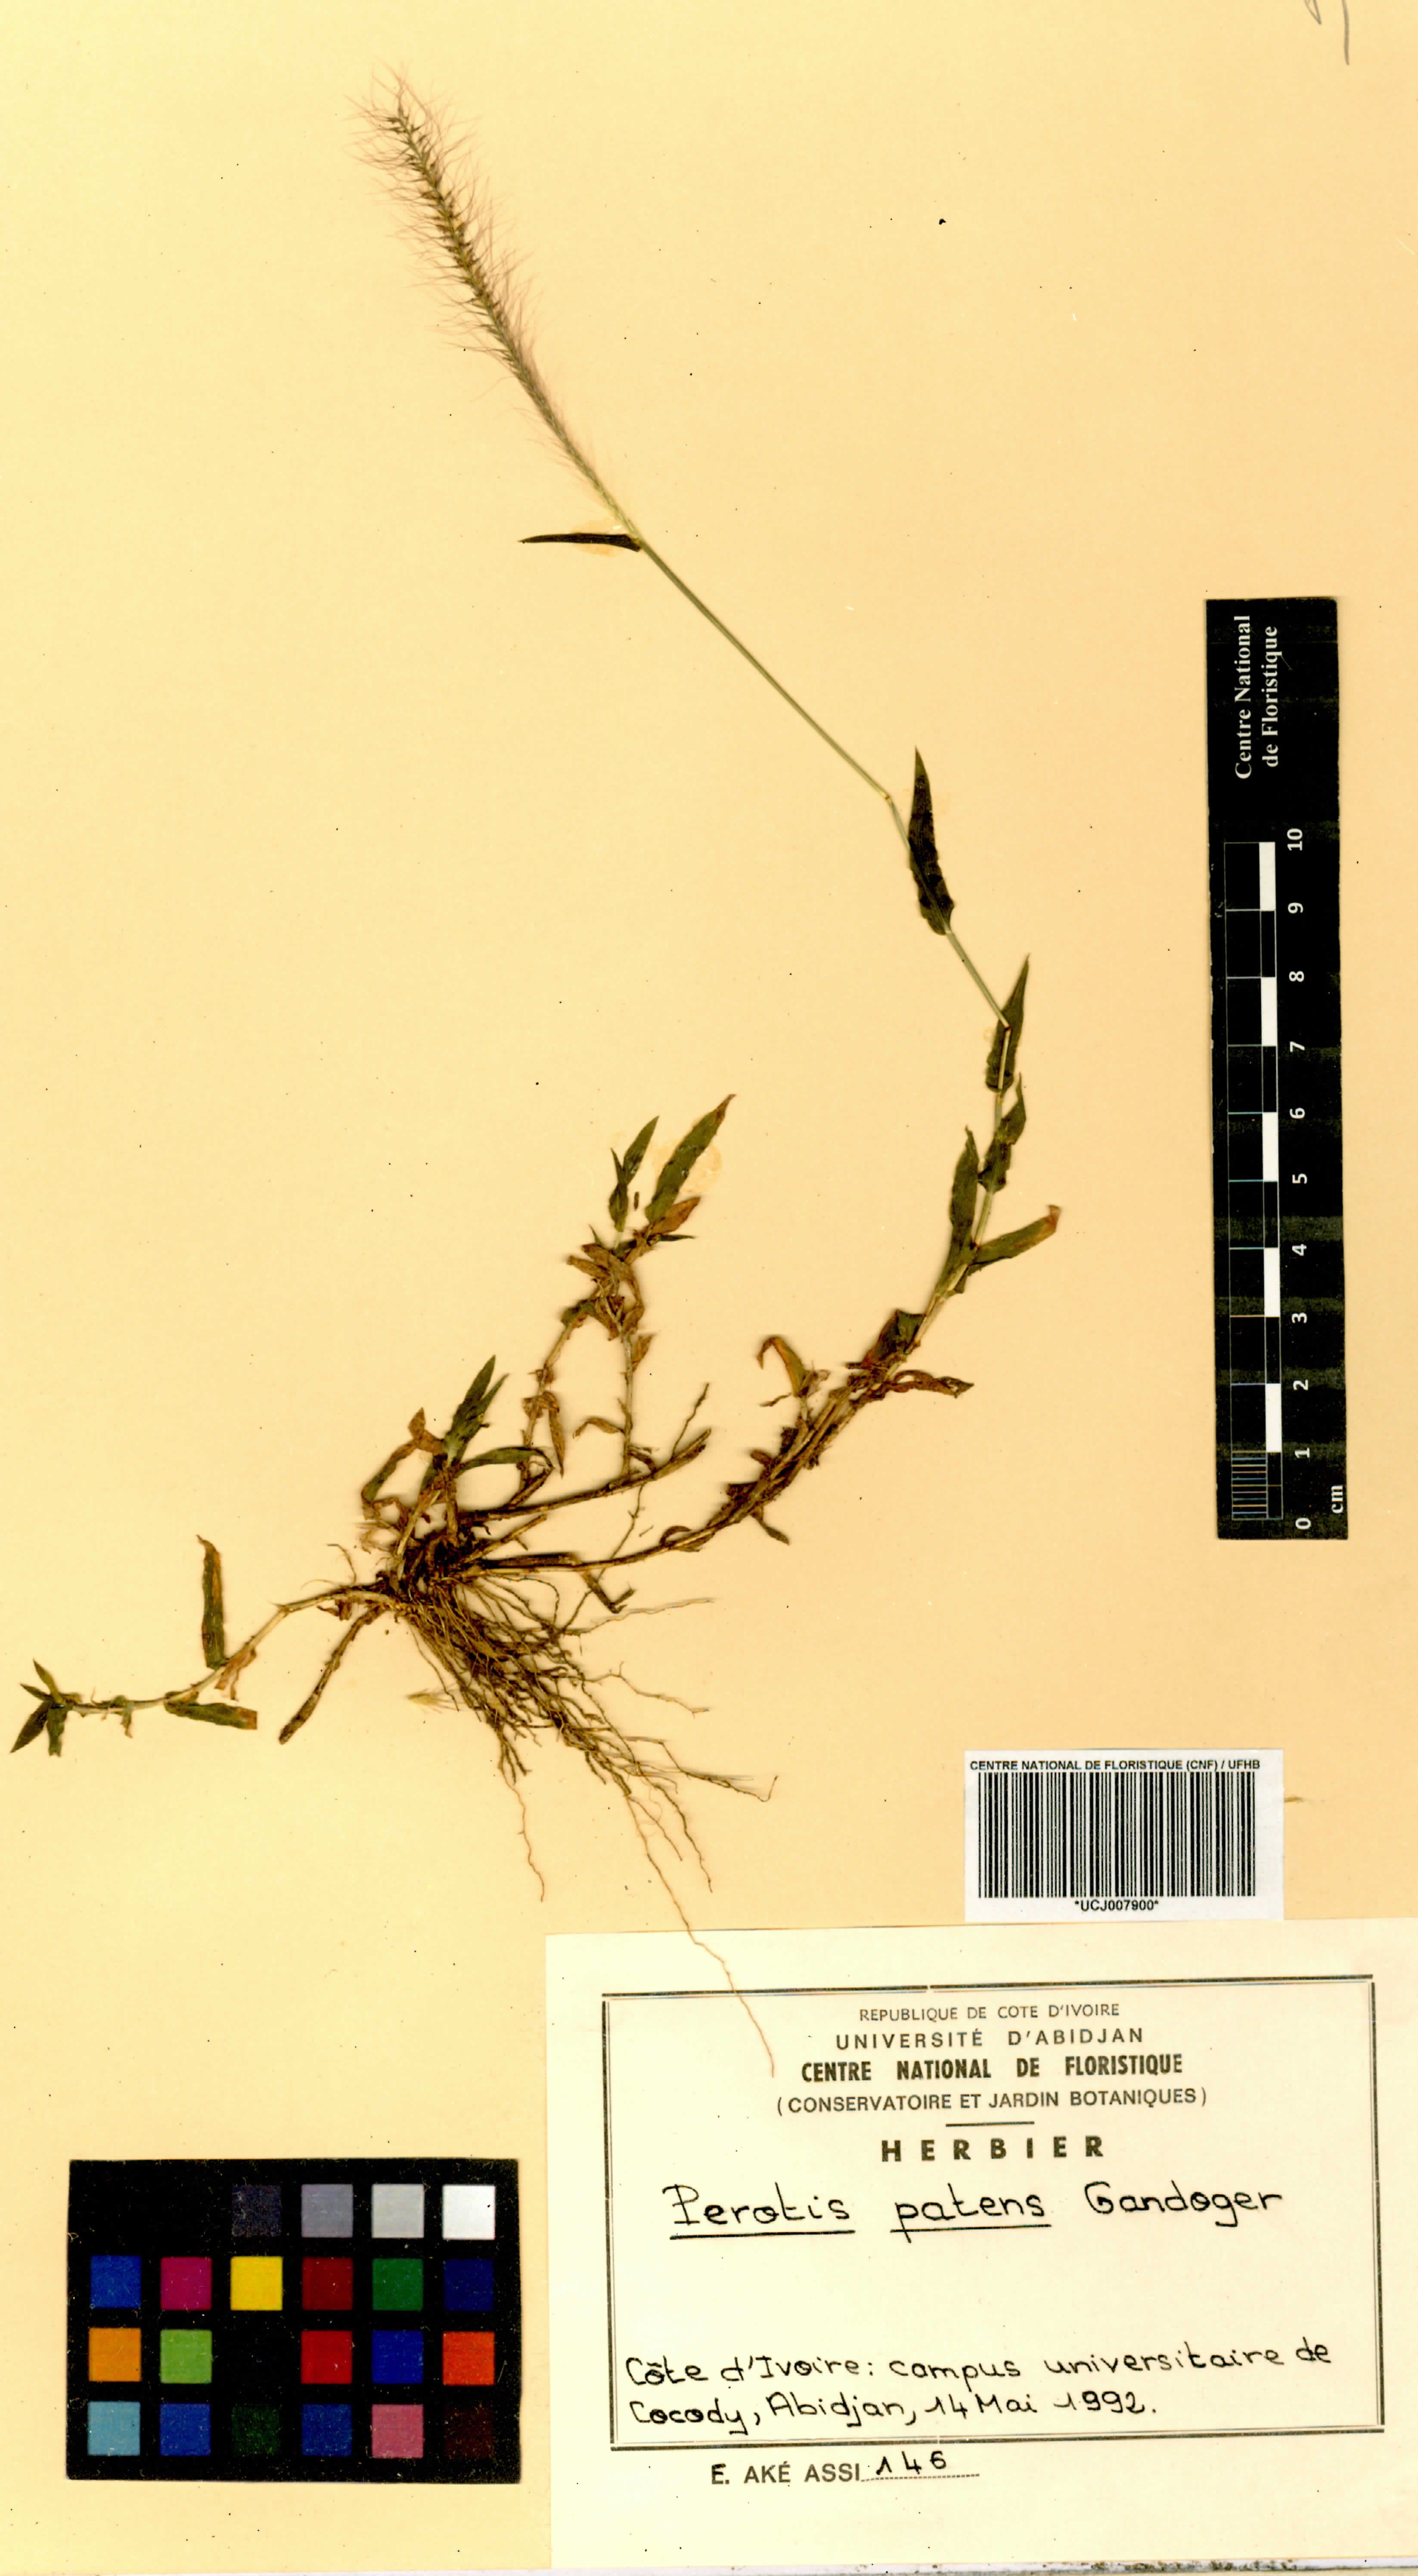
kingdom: Plantae
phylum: Tracheophyta
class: Liliopsida
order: Poales
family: Poaceae
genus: Perotis
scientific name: Perotis patens
